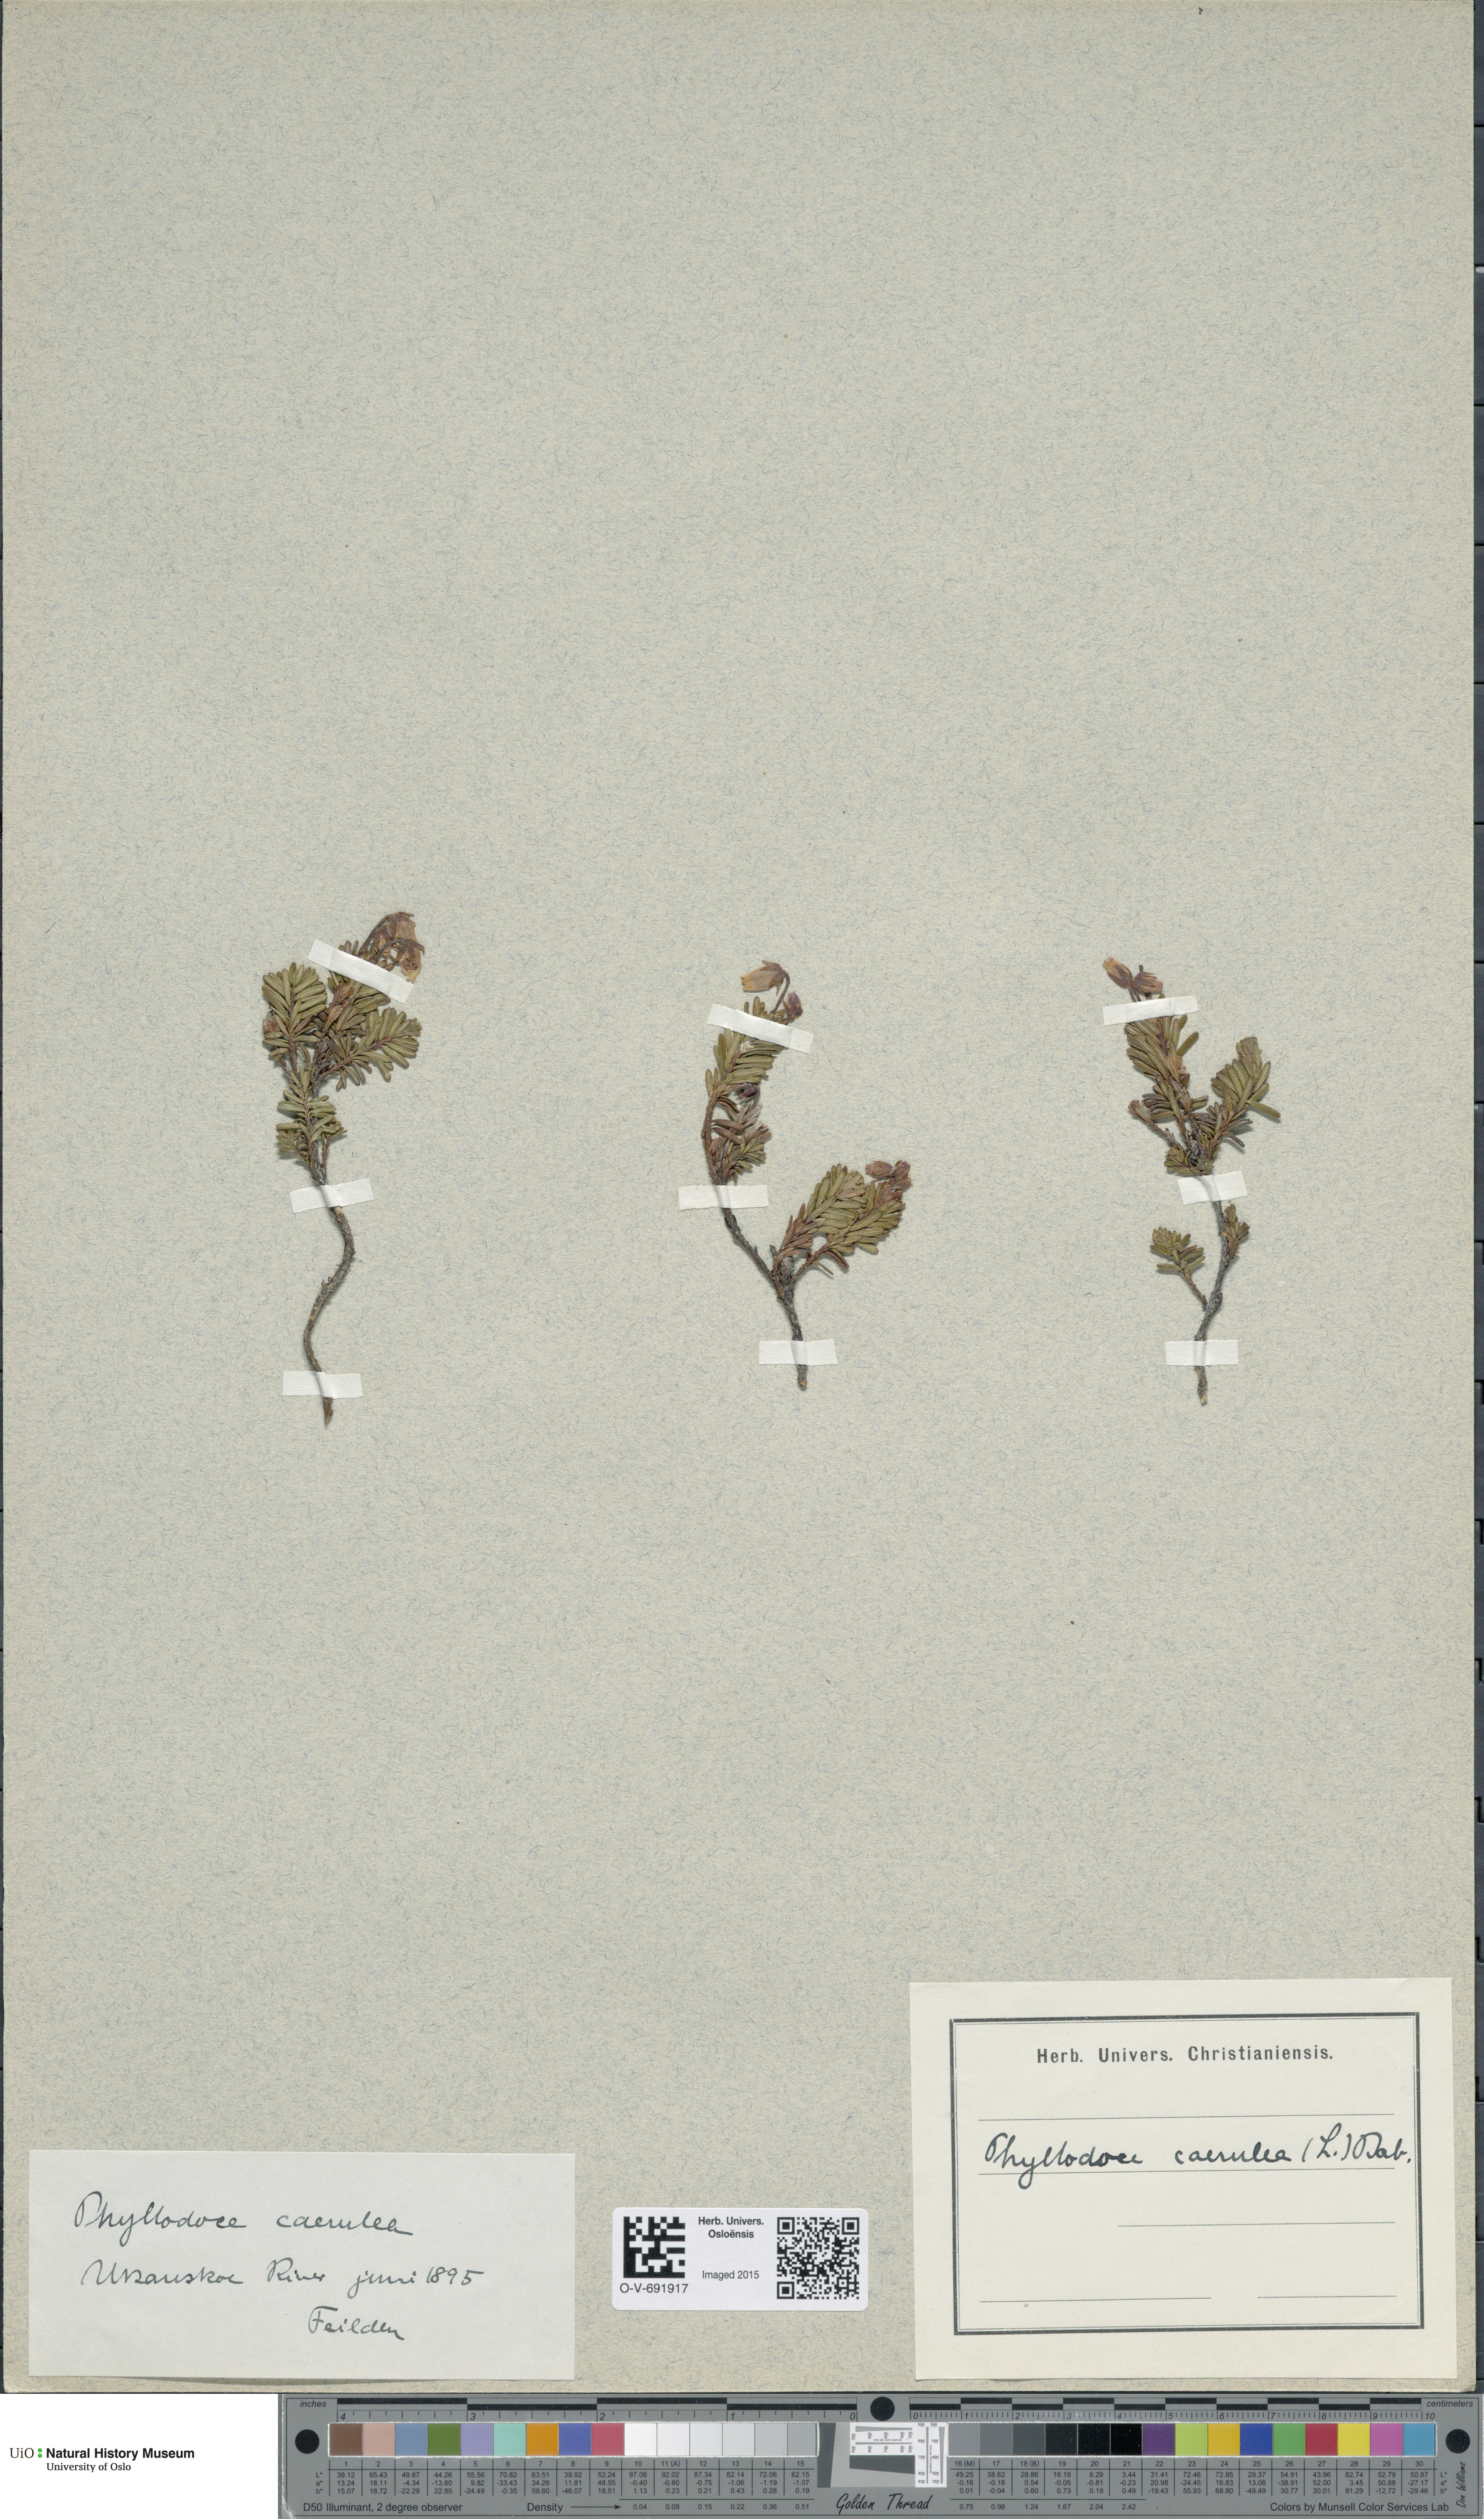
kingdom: Plantae
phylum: Tracheophyta
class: Magnoliopsida
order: Ericales
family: Ericaceae
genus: Phyllodoce
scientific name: Phyllodoce caerulea
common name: Blue heath
